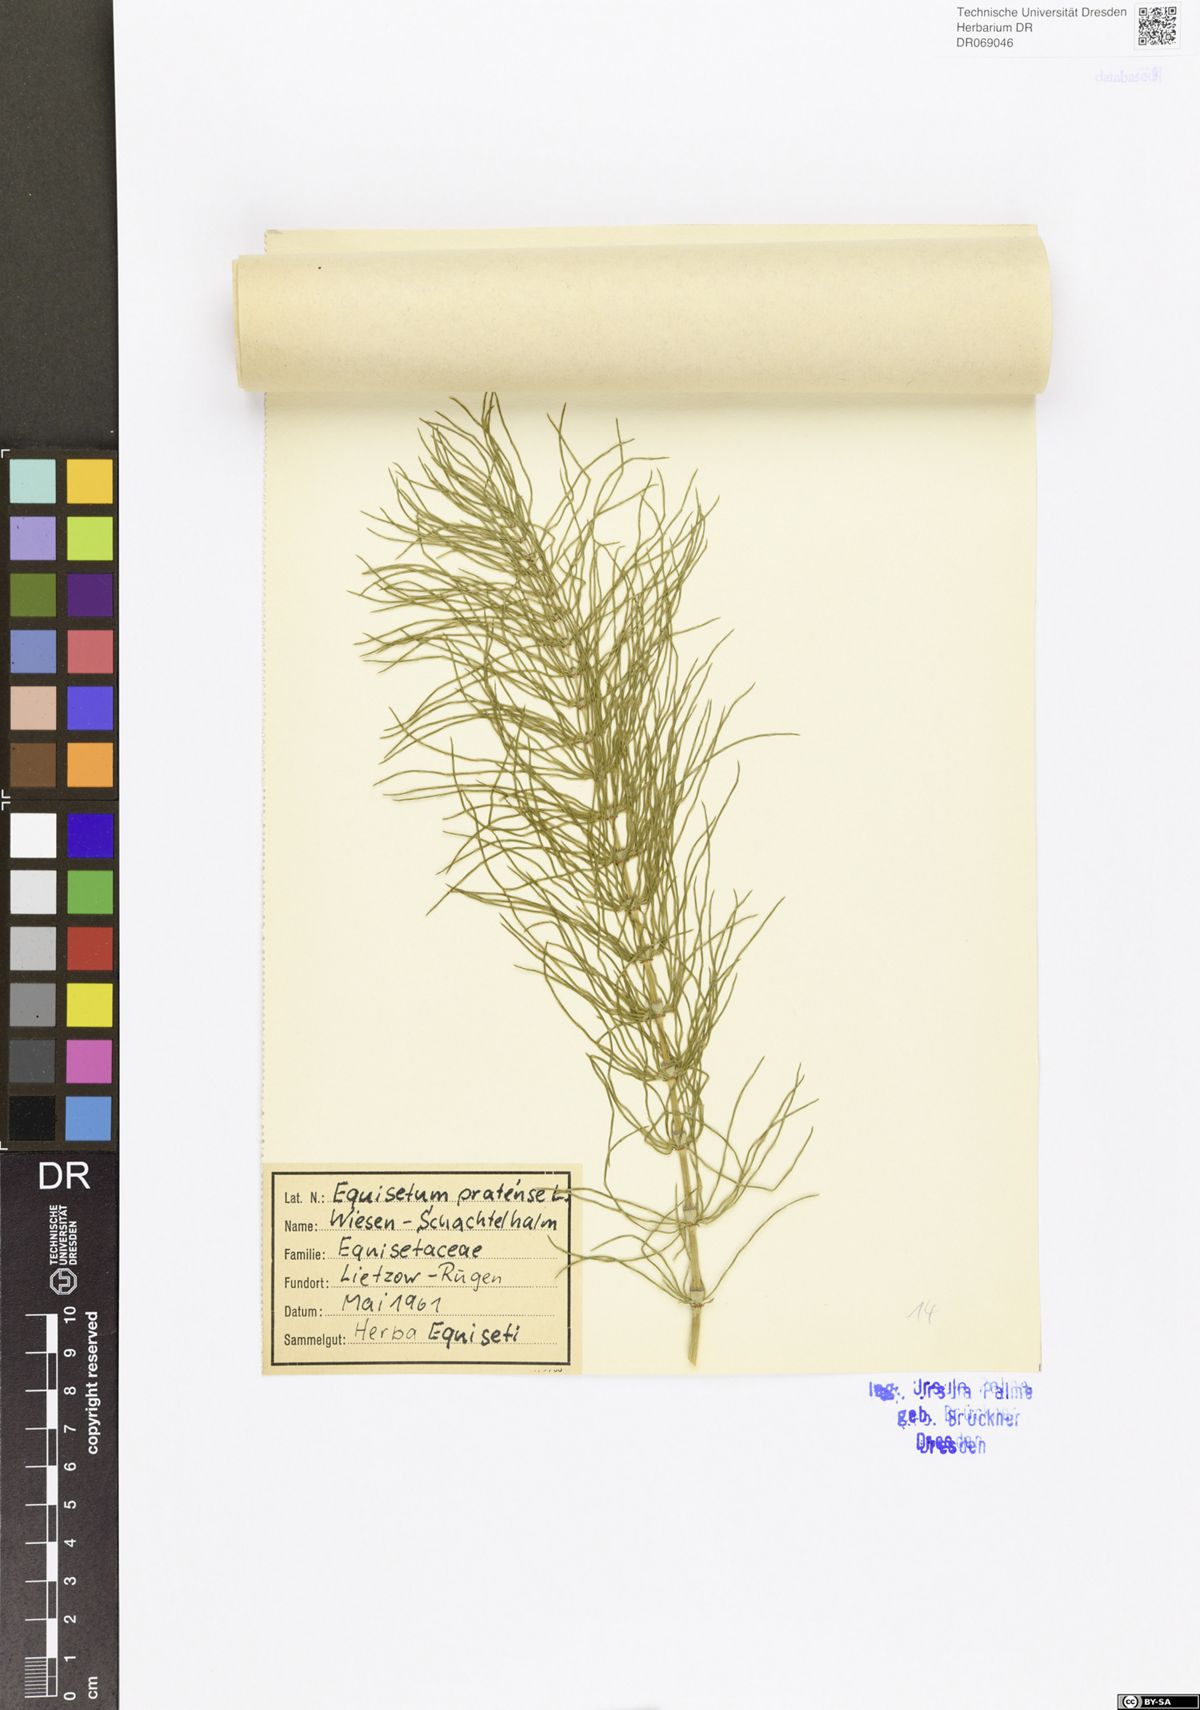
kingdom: Plantae
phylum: Tracheophyta
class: Polypodiopsida
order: Equisetales
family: Equisetaceae
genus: Equisetum
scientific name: Equisetum pratense
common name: Meadow horsetail
